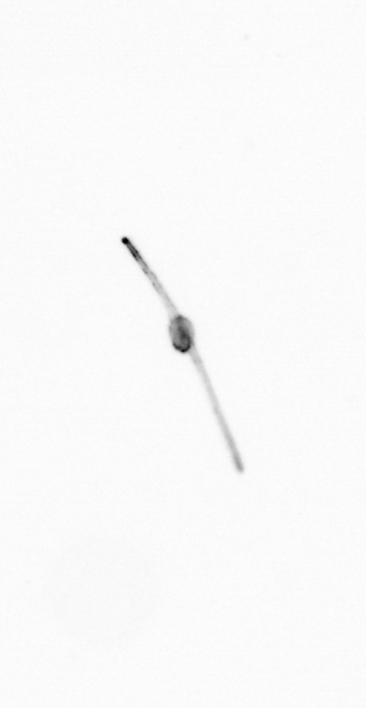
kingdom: Chromista
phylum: Ochrophyta
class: Bacillariophyceae
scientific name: Bacillariophyceae
